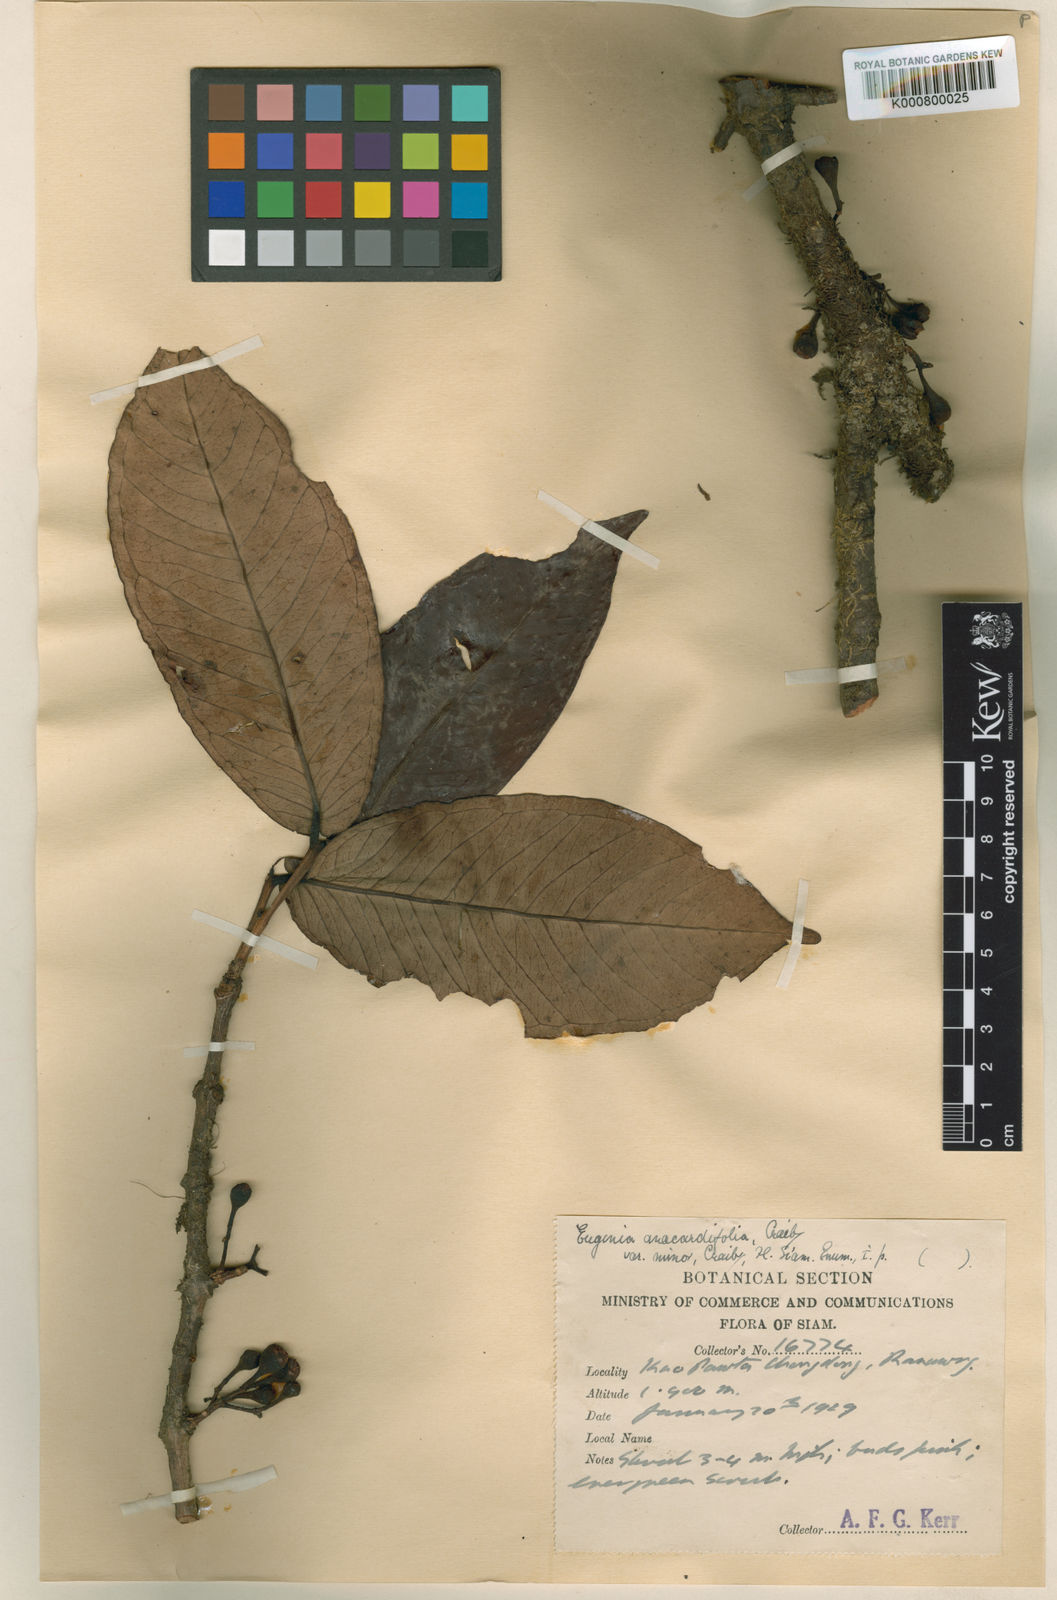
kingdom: Plantae
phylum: Tracheophyta
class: Magnoliopsida
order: Myrtales
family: Myrtaceae
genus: Syzygium
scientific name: Syzygium anacardiifolium
